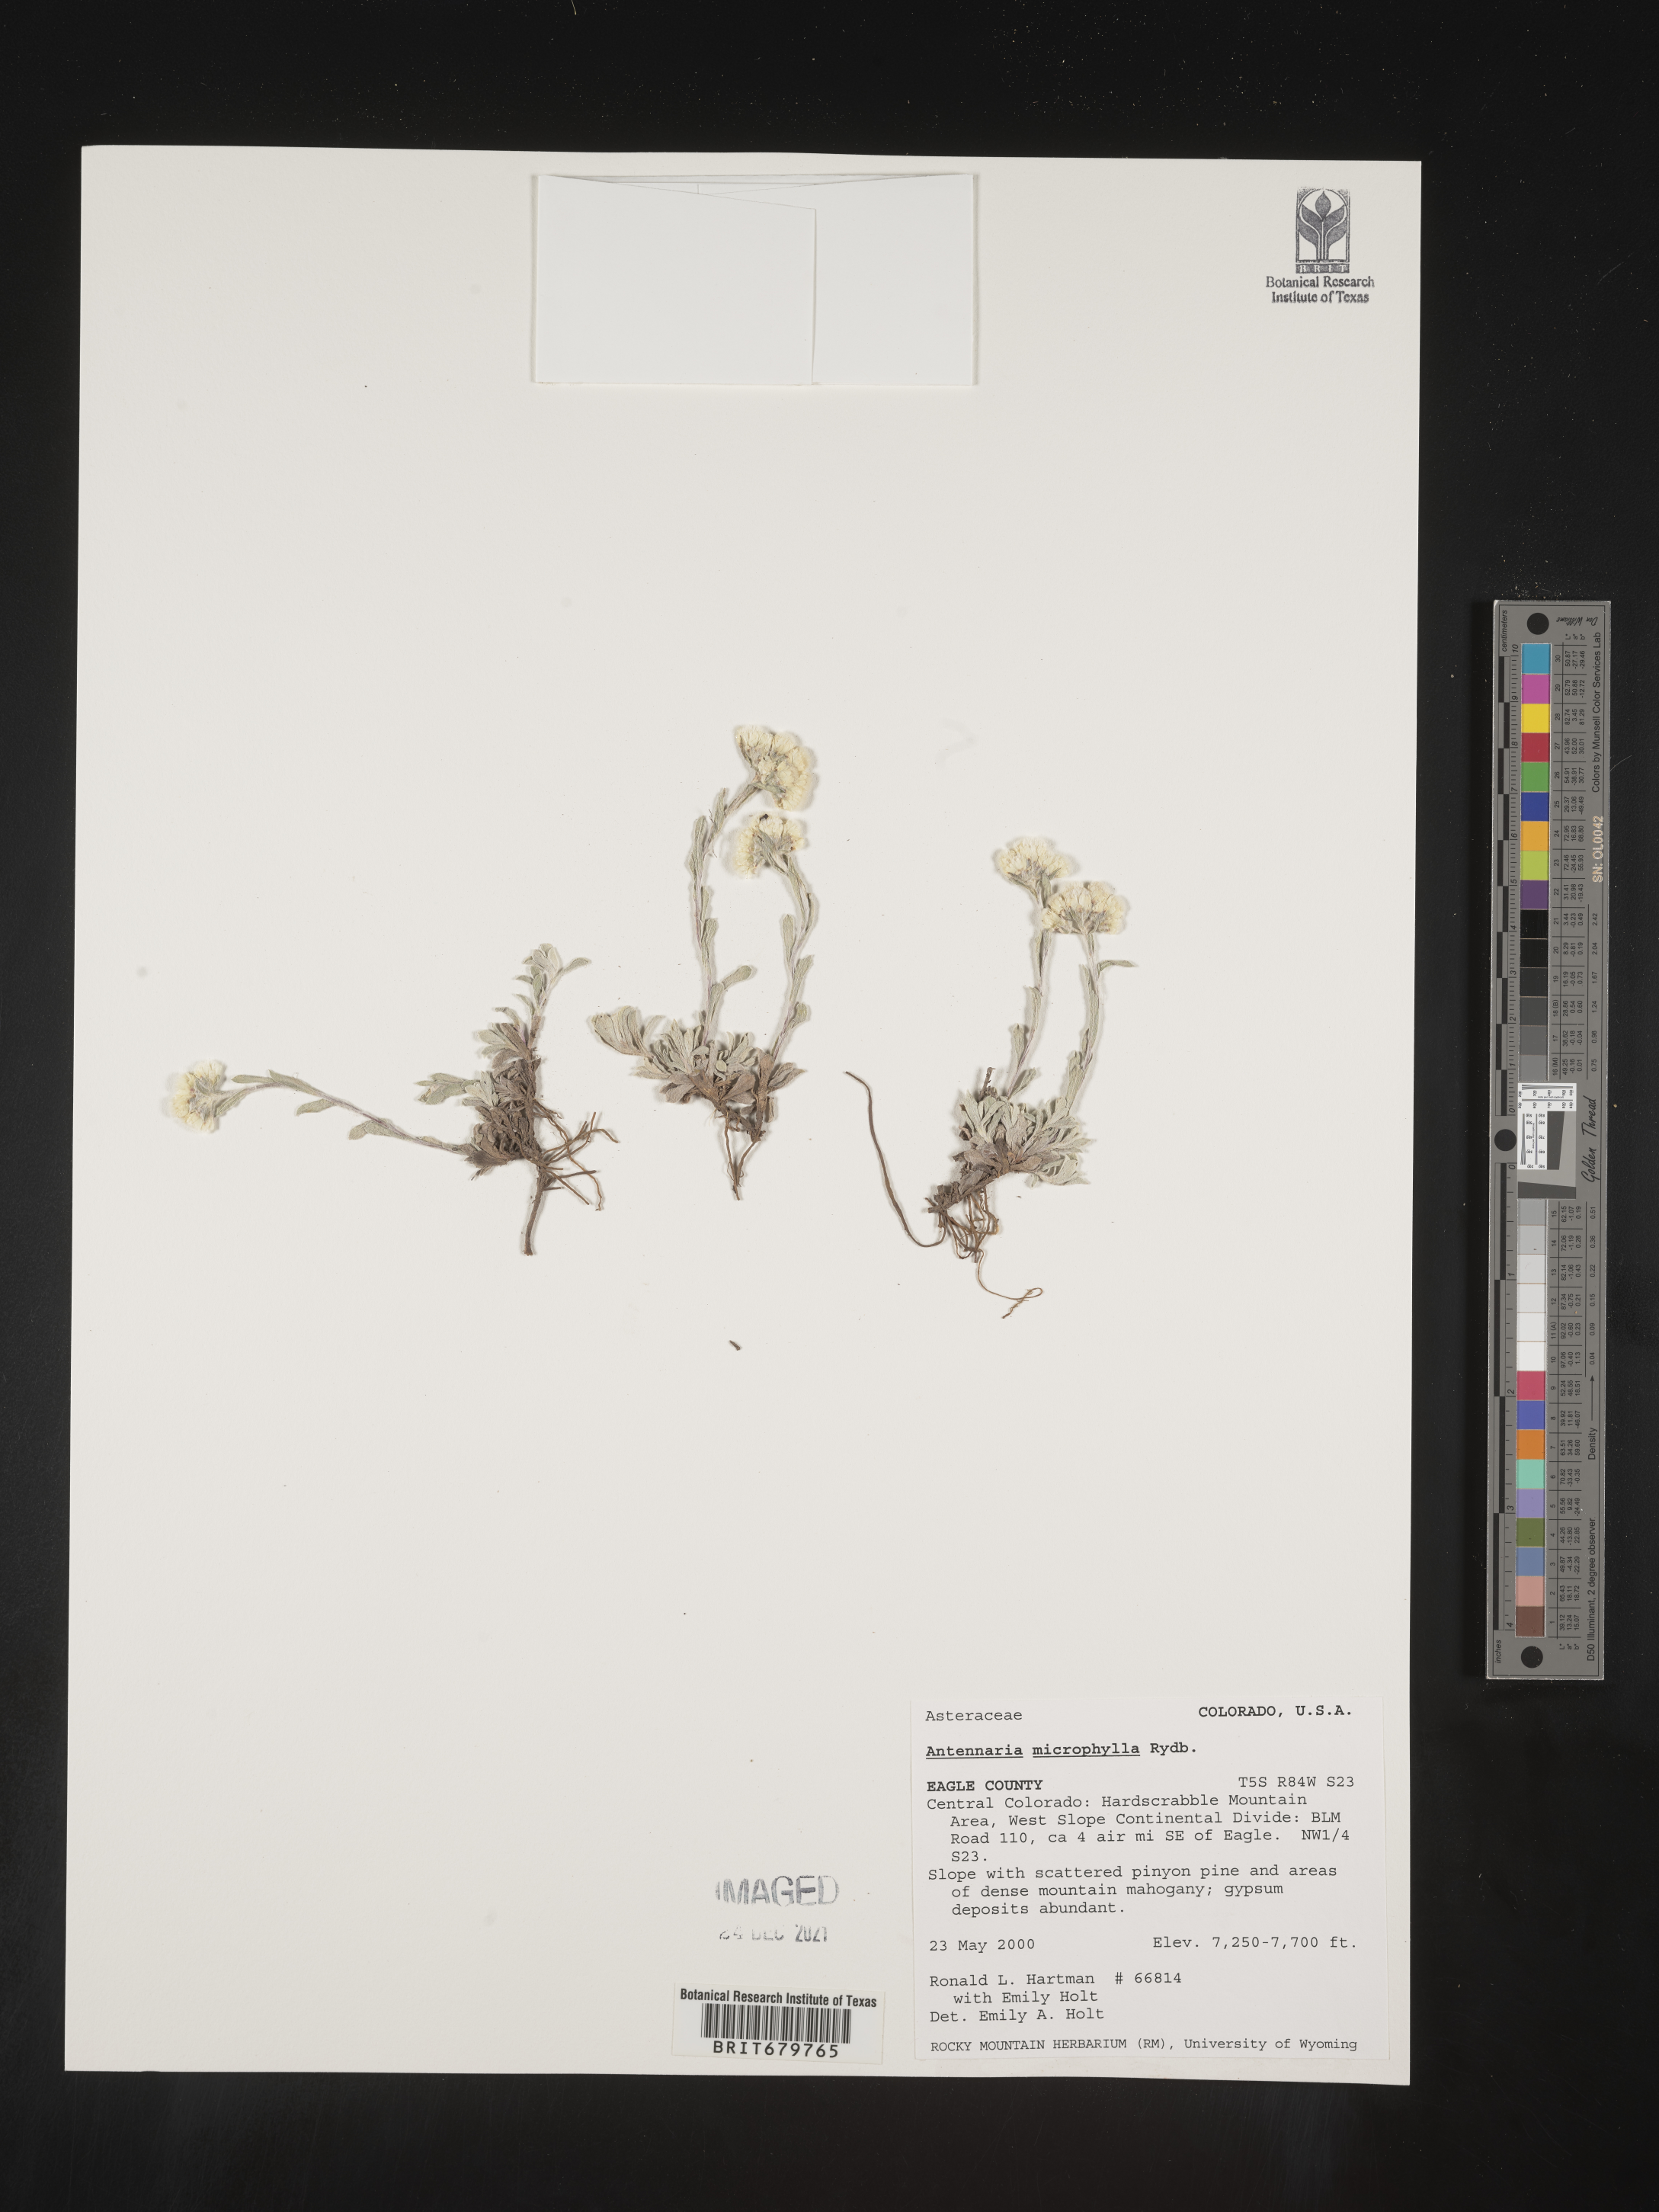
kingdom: Plantae
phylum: Tracheophyta
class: Magnoliopsida
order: Asterales
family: Asteraceae
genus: Antennaria
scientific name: Antennaria microphylla
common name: Littleleaf pussytoes
